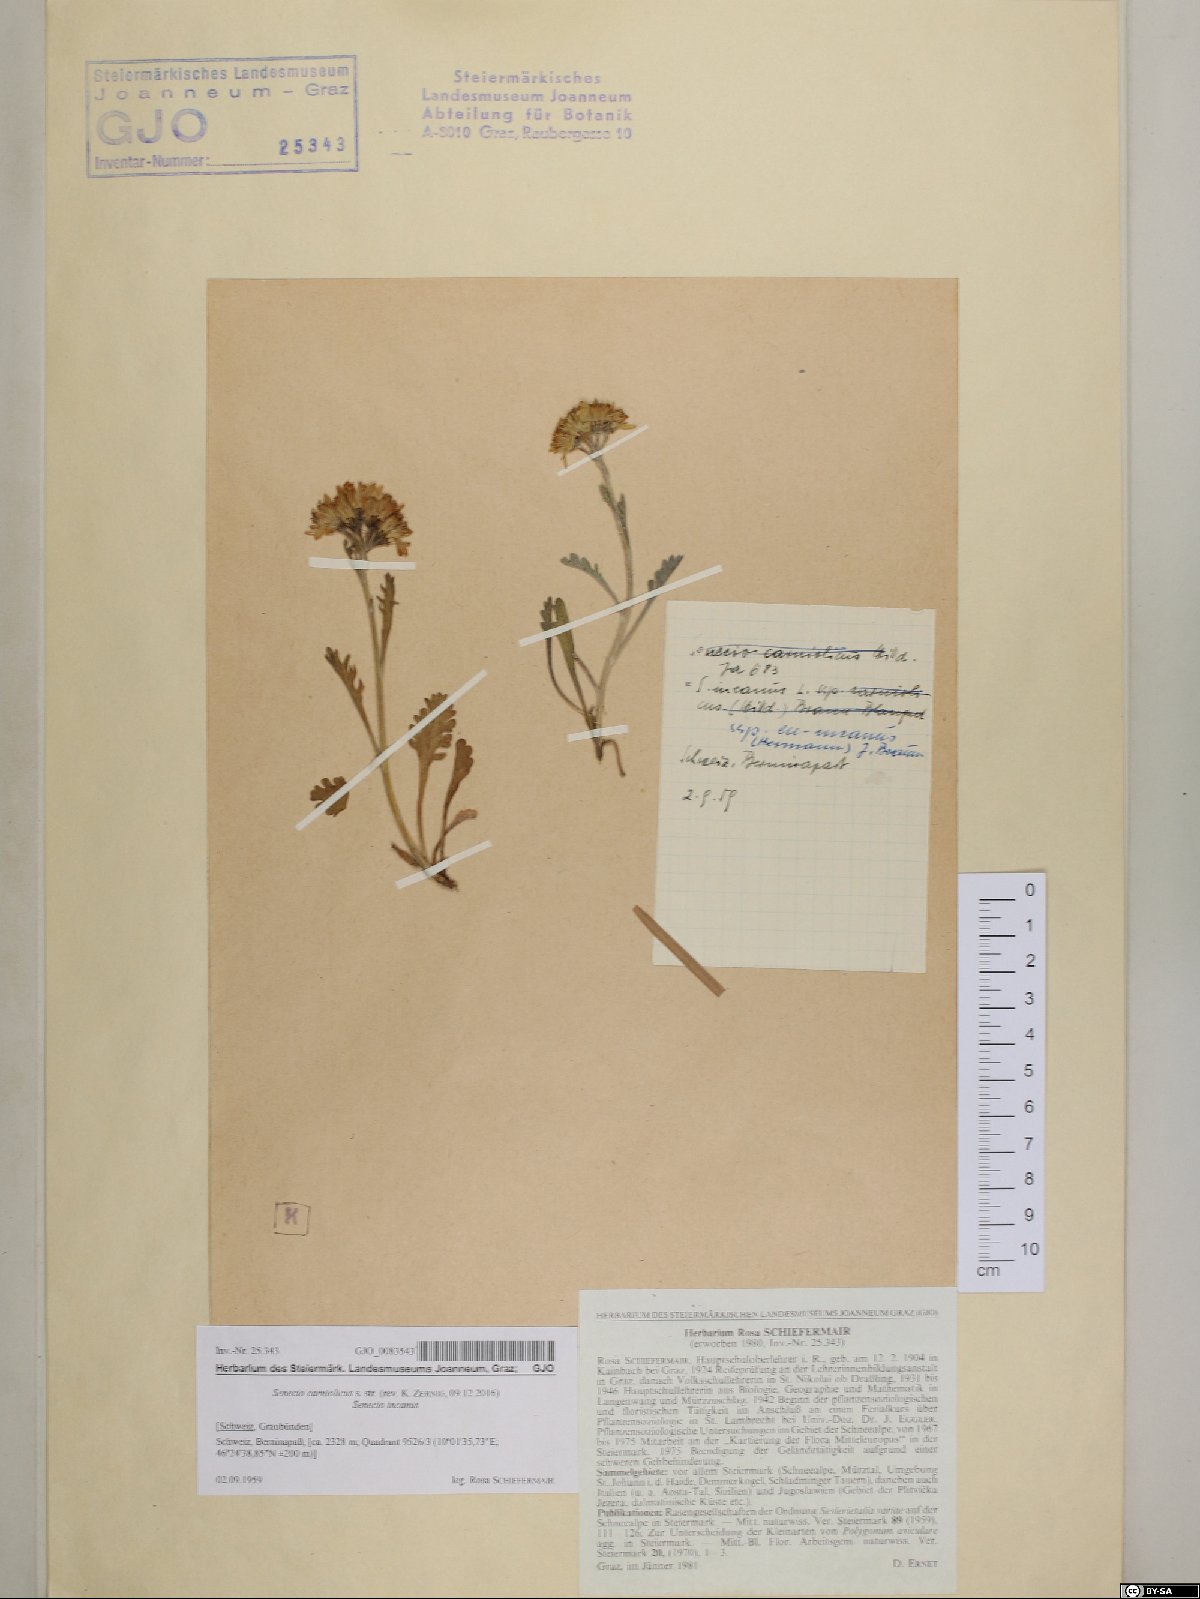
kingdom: Plantae
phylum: Tracheophyta
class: Magnoliopsida
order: Asterales
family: Asteraceae
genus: Jacobaea
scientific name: Jacobaea carniolica
